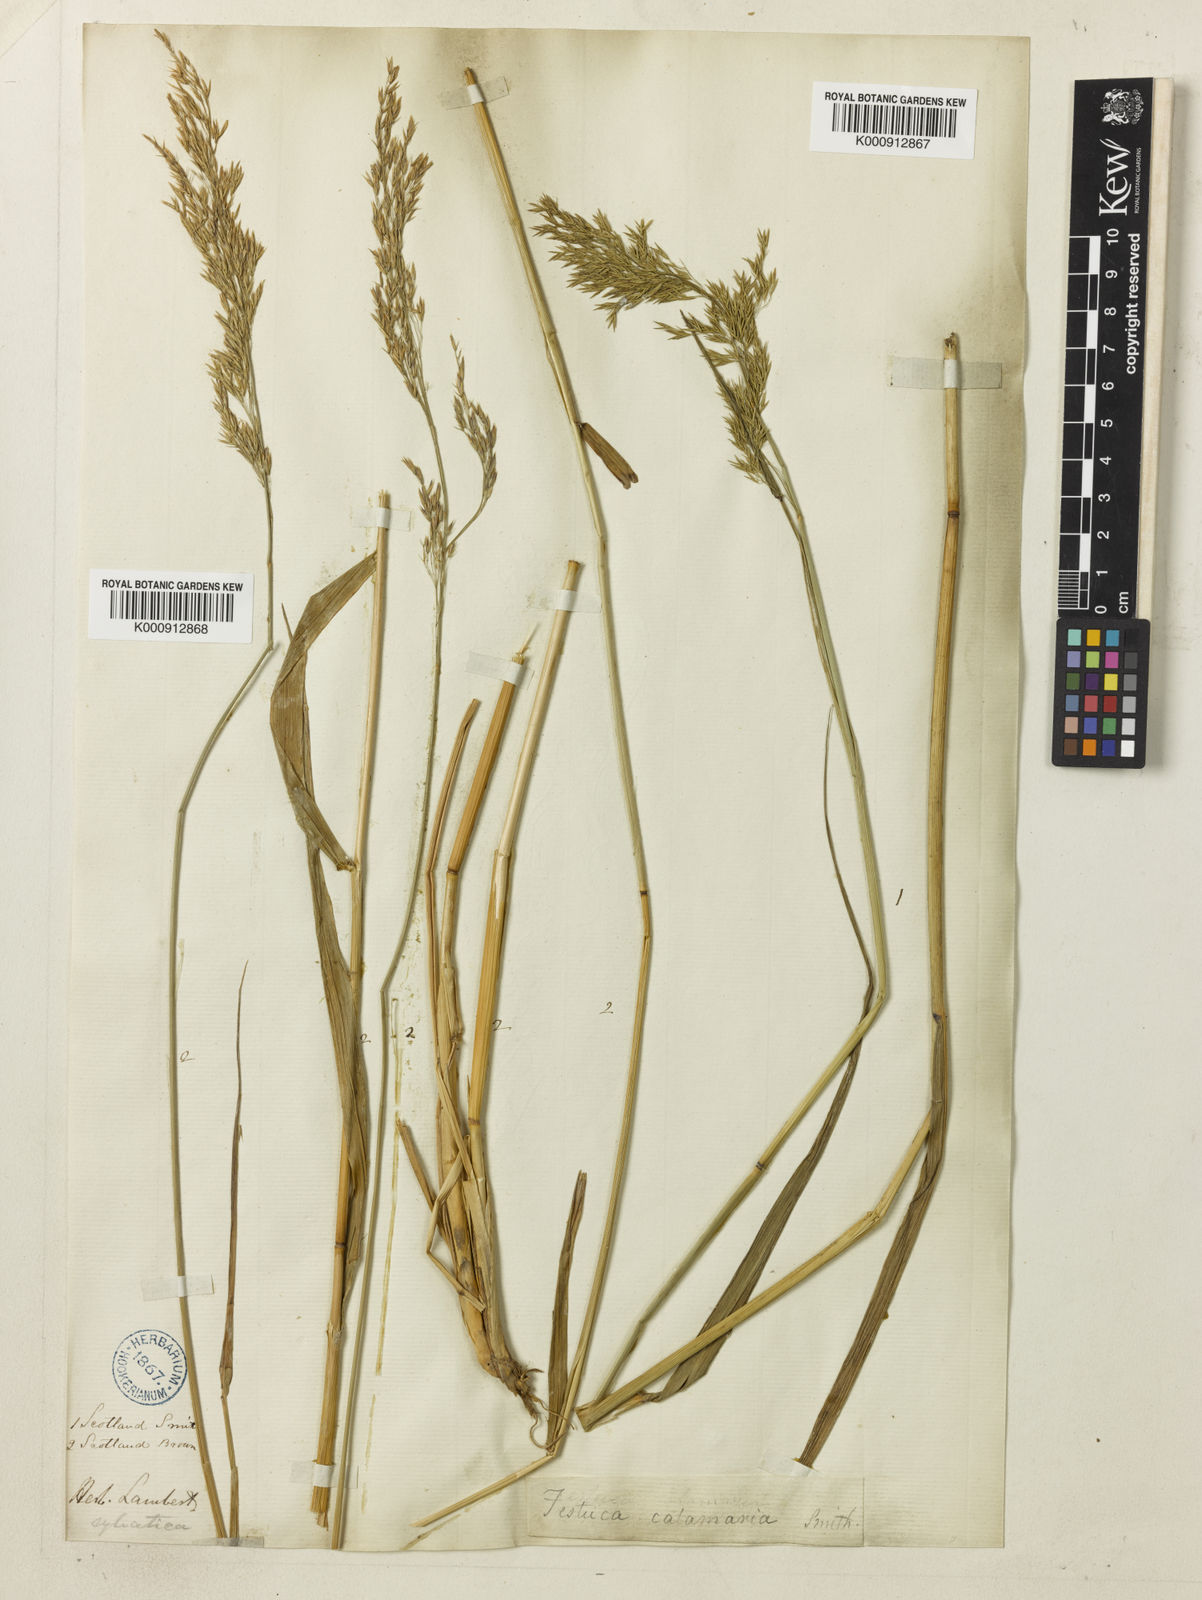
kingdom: Plantae
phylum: Tracheophyta
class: Liliopsida
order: Poales
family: Poaceae
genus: Festuca
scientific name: Festuca altissima
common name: Wood fescue
